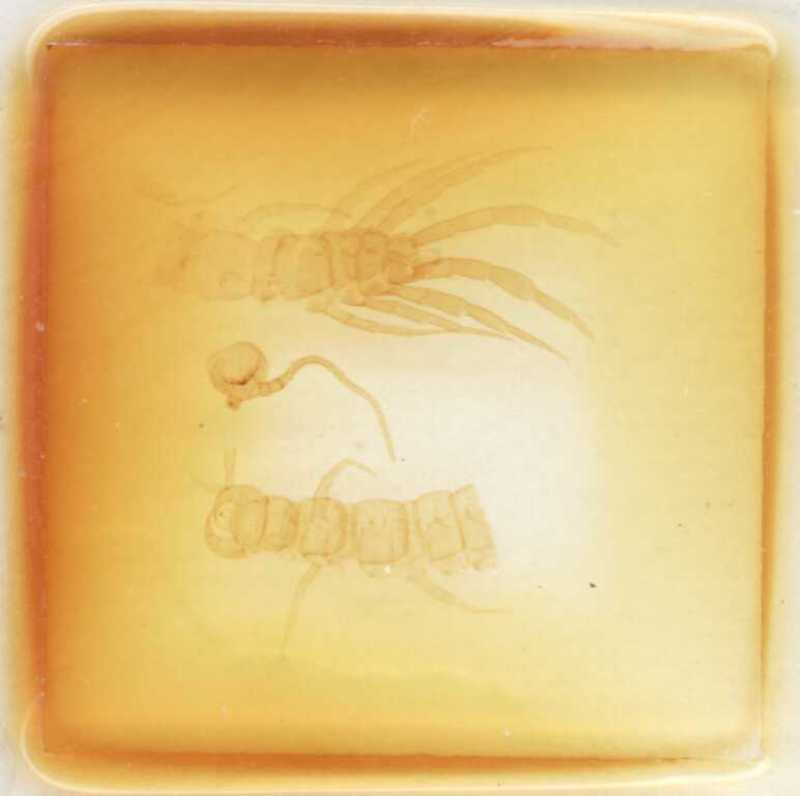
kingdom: Animalia
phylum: Arthropoda
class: Chilopoda
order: Geophilomorpha
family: Geophilidae
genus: Eurytion
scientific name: Eurytion tenebrosus
